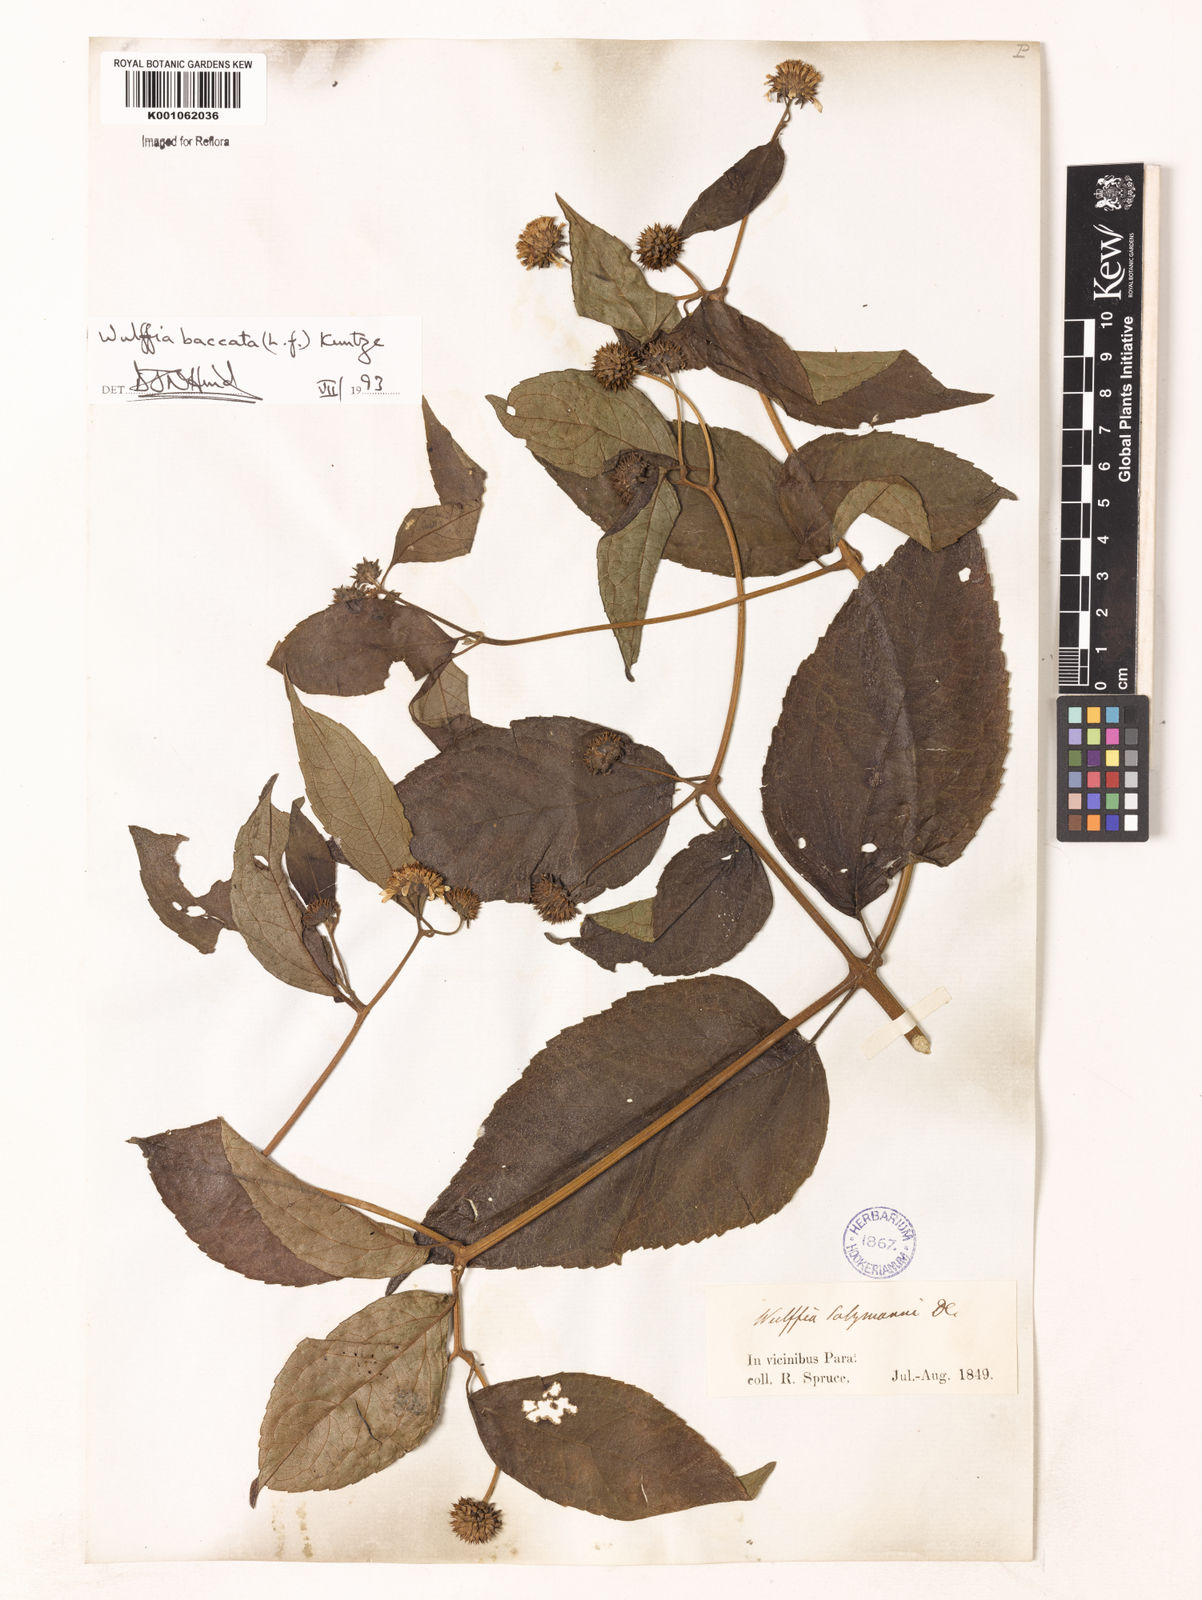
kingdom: Plantae
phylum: Tracheophyta
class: Magnoliopsida
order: Asterales
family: Asteraceae
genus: Tilesia
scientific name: Tilesia baccata
